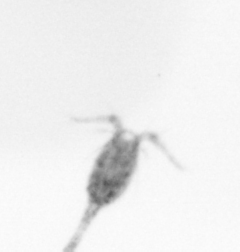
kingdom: Animalia
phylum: Arthropoda
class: Copepoda
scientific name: Copepoda
